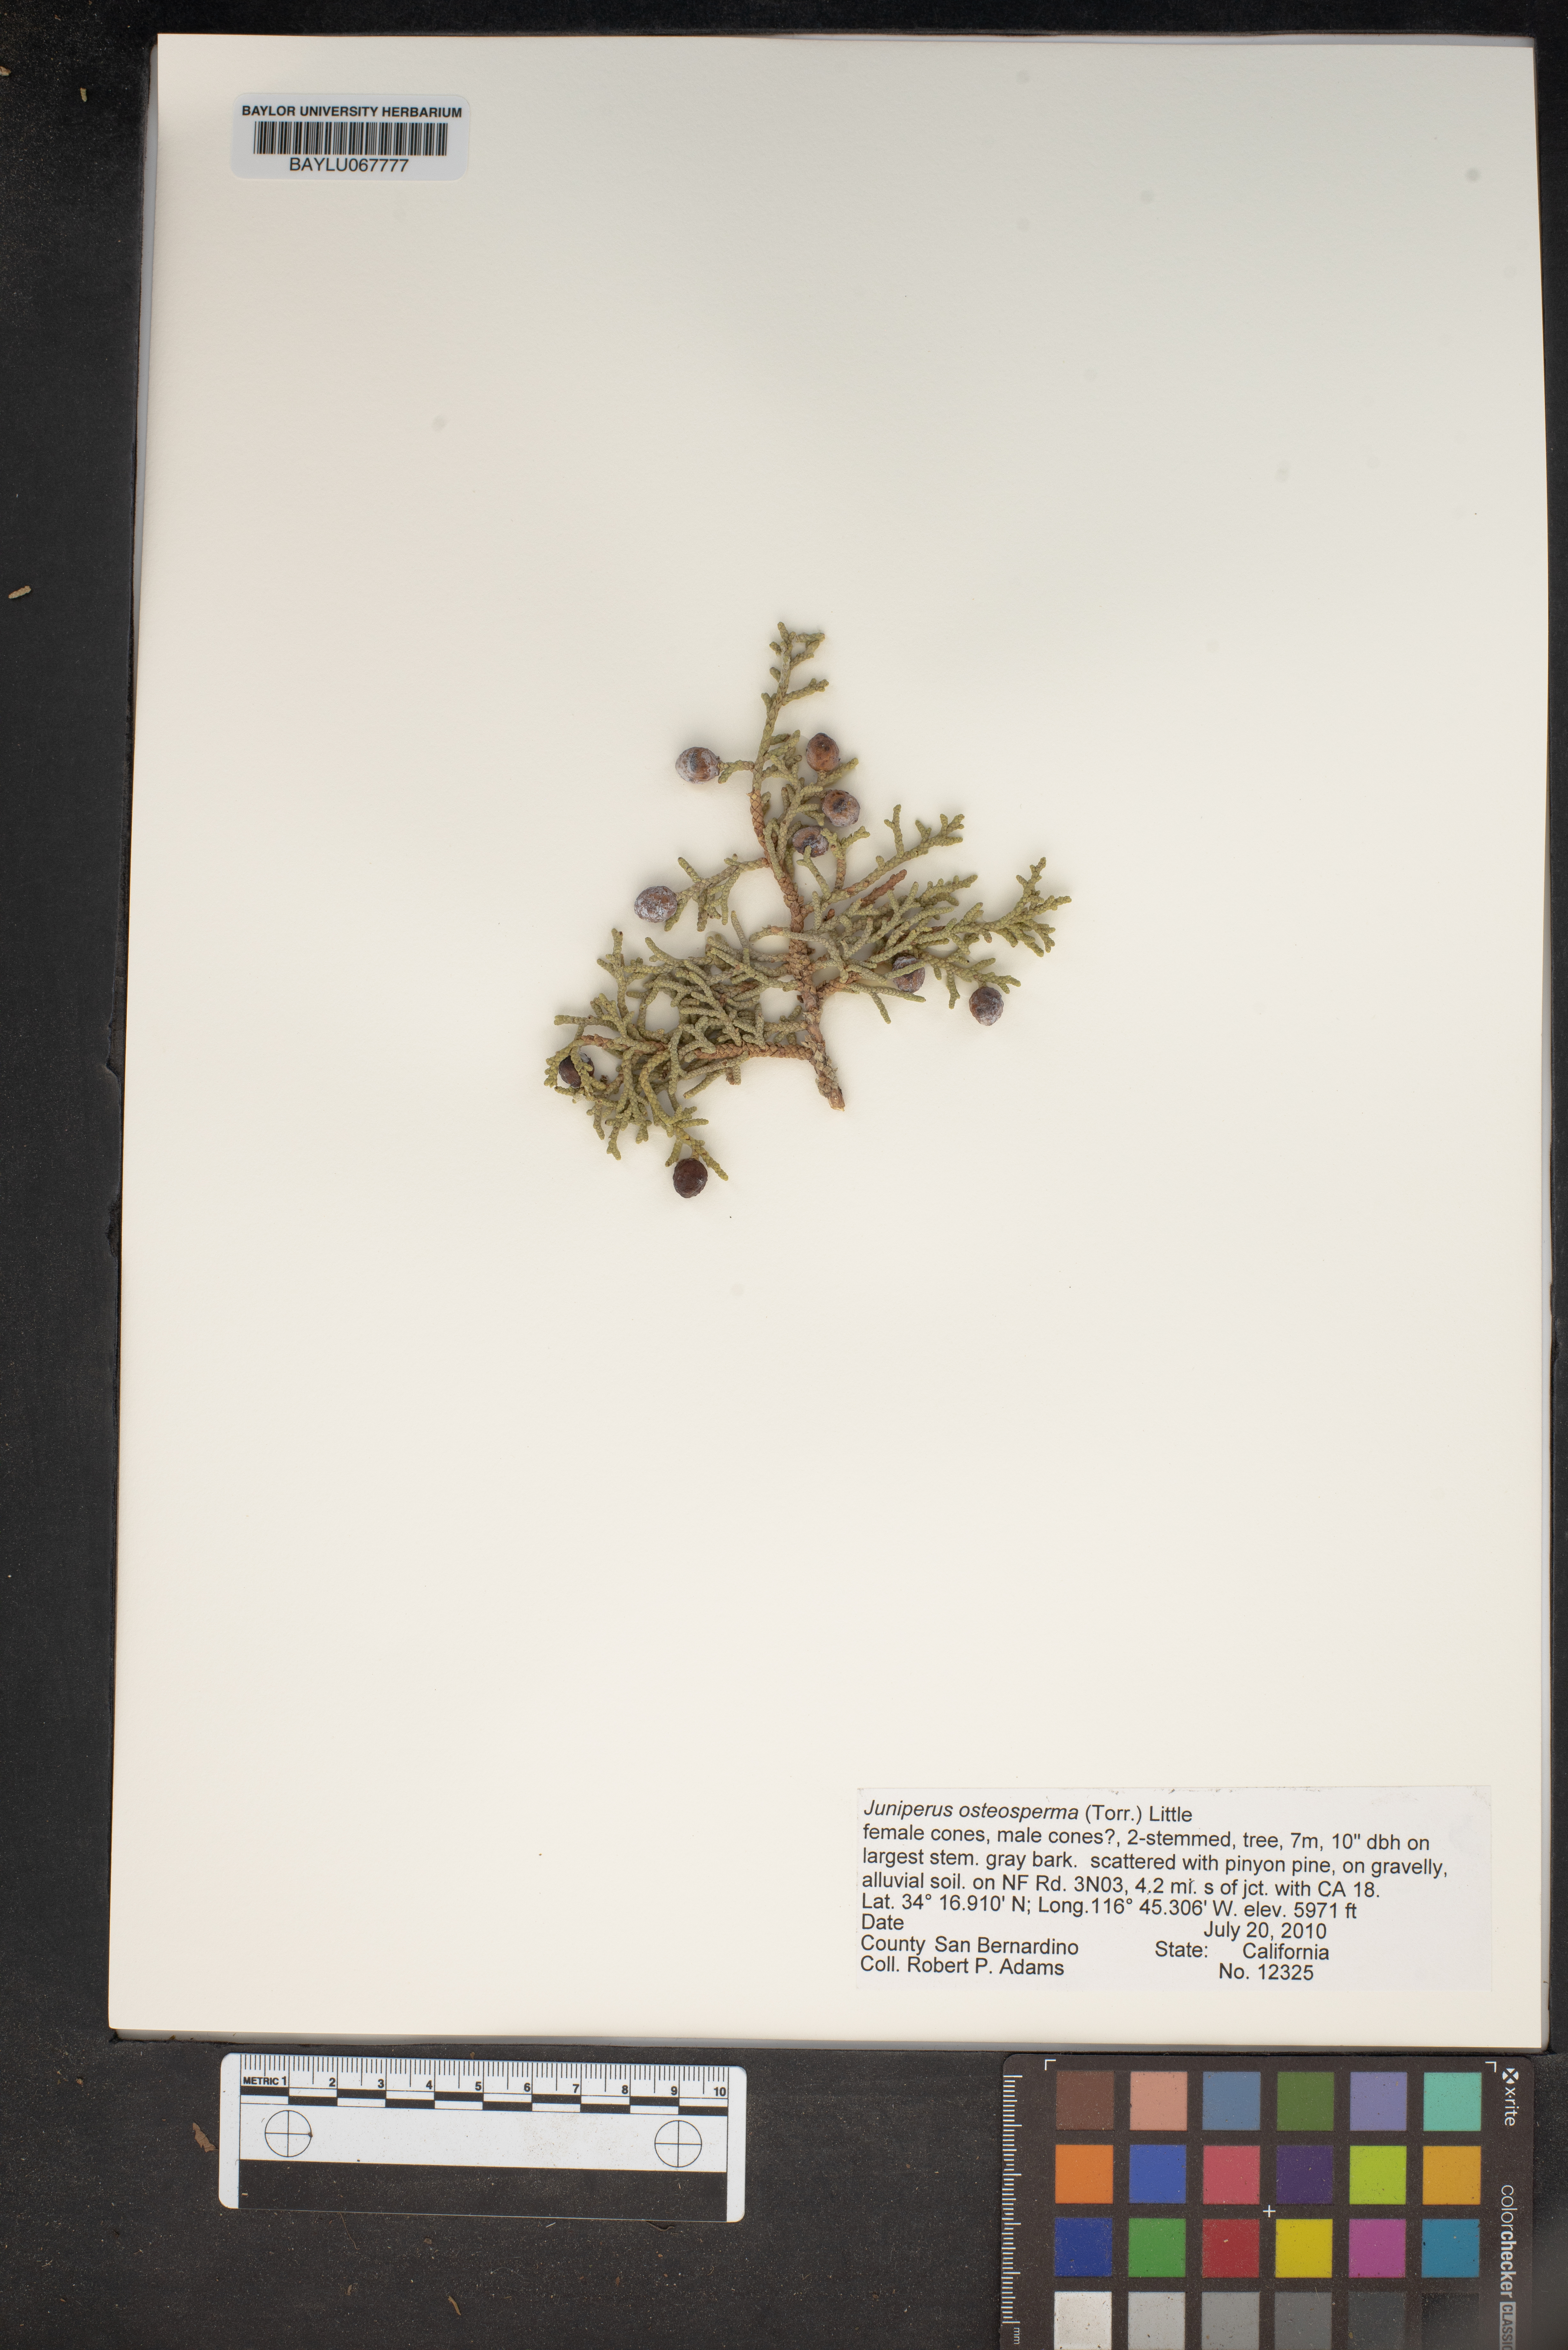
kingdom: Plantae
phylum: Tracheophyta
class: Pinopsida
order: Pinales
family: Cupressaceae
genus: Juniperus
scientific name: Juniperus osteosperma
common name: Utah juniper
